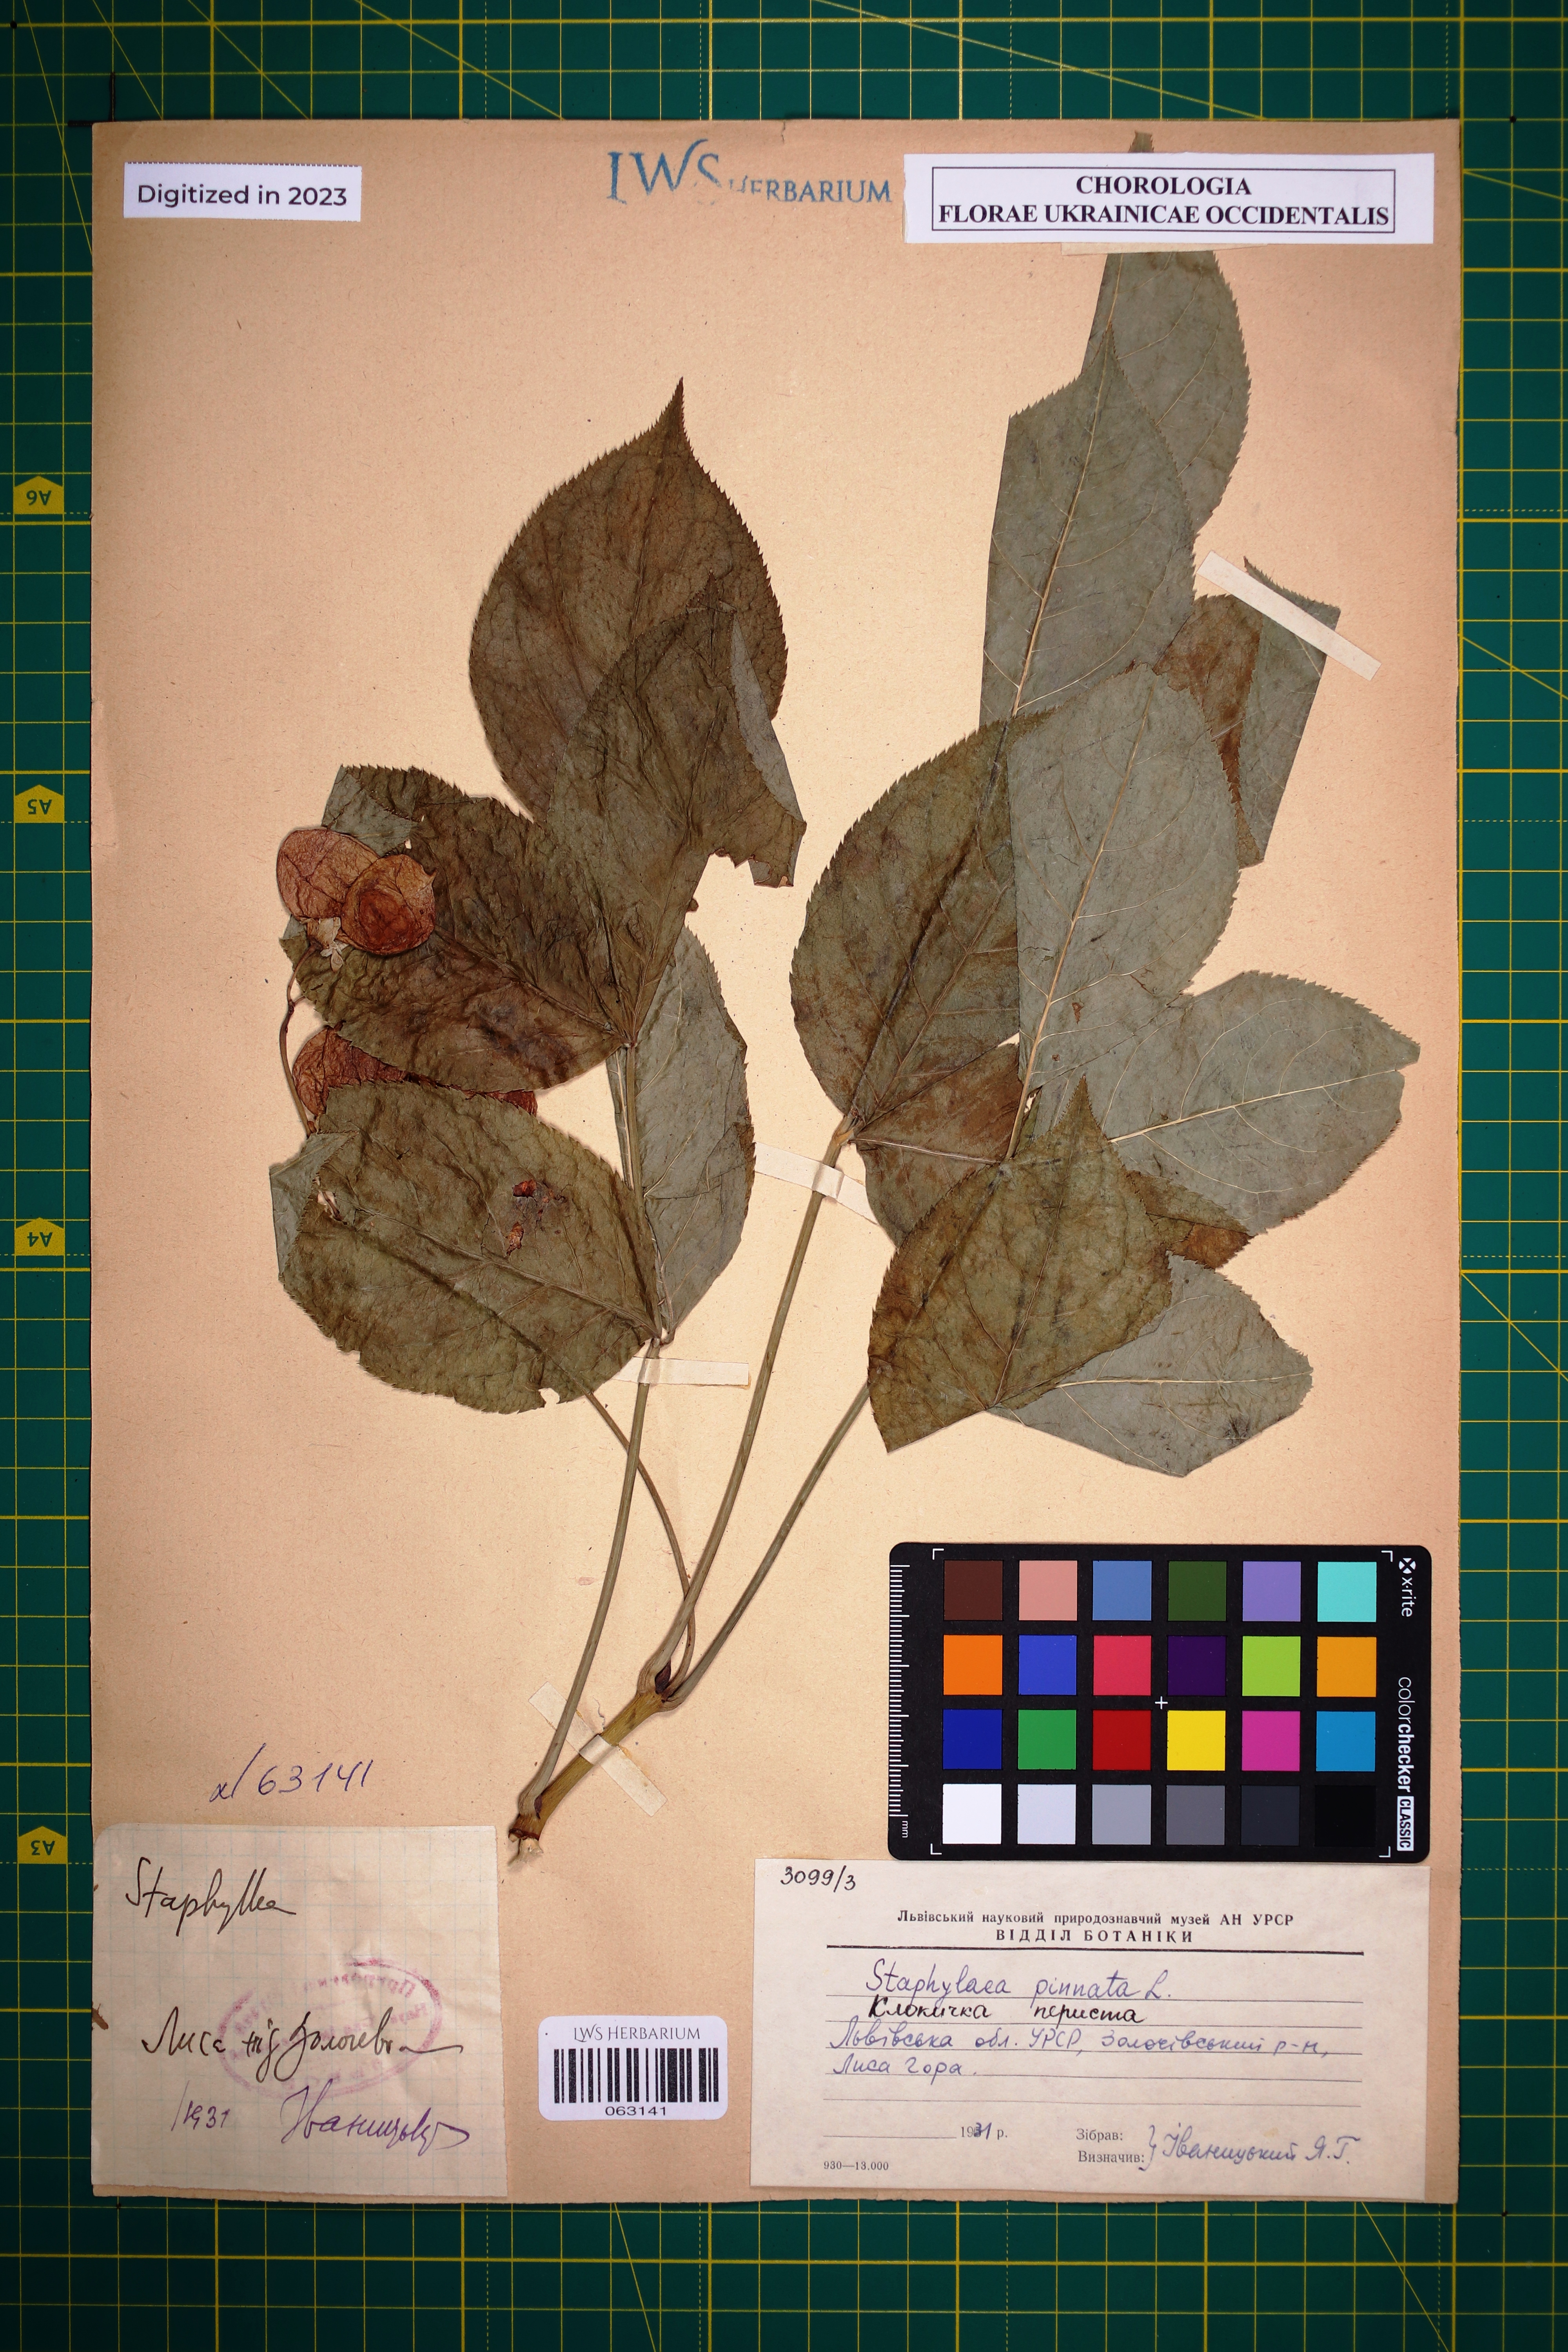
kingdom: Plantae
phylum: Tracheophyta
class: Magnoliopsida
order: Crossosomatales
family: Staphyleaceae
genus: Staphylea
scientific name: Staphylea pinnata
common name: Bladdernut
